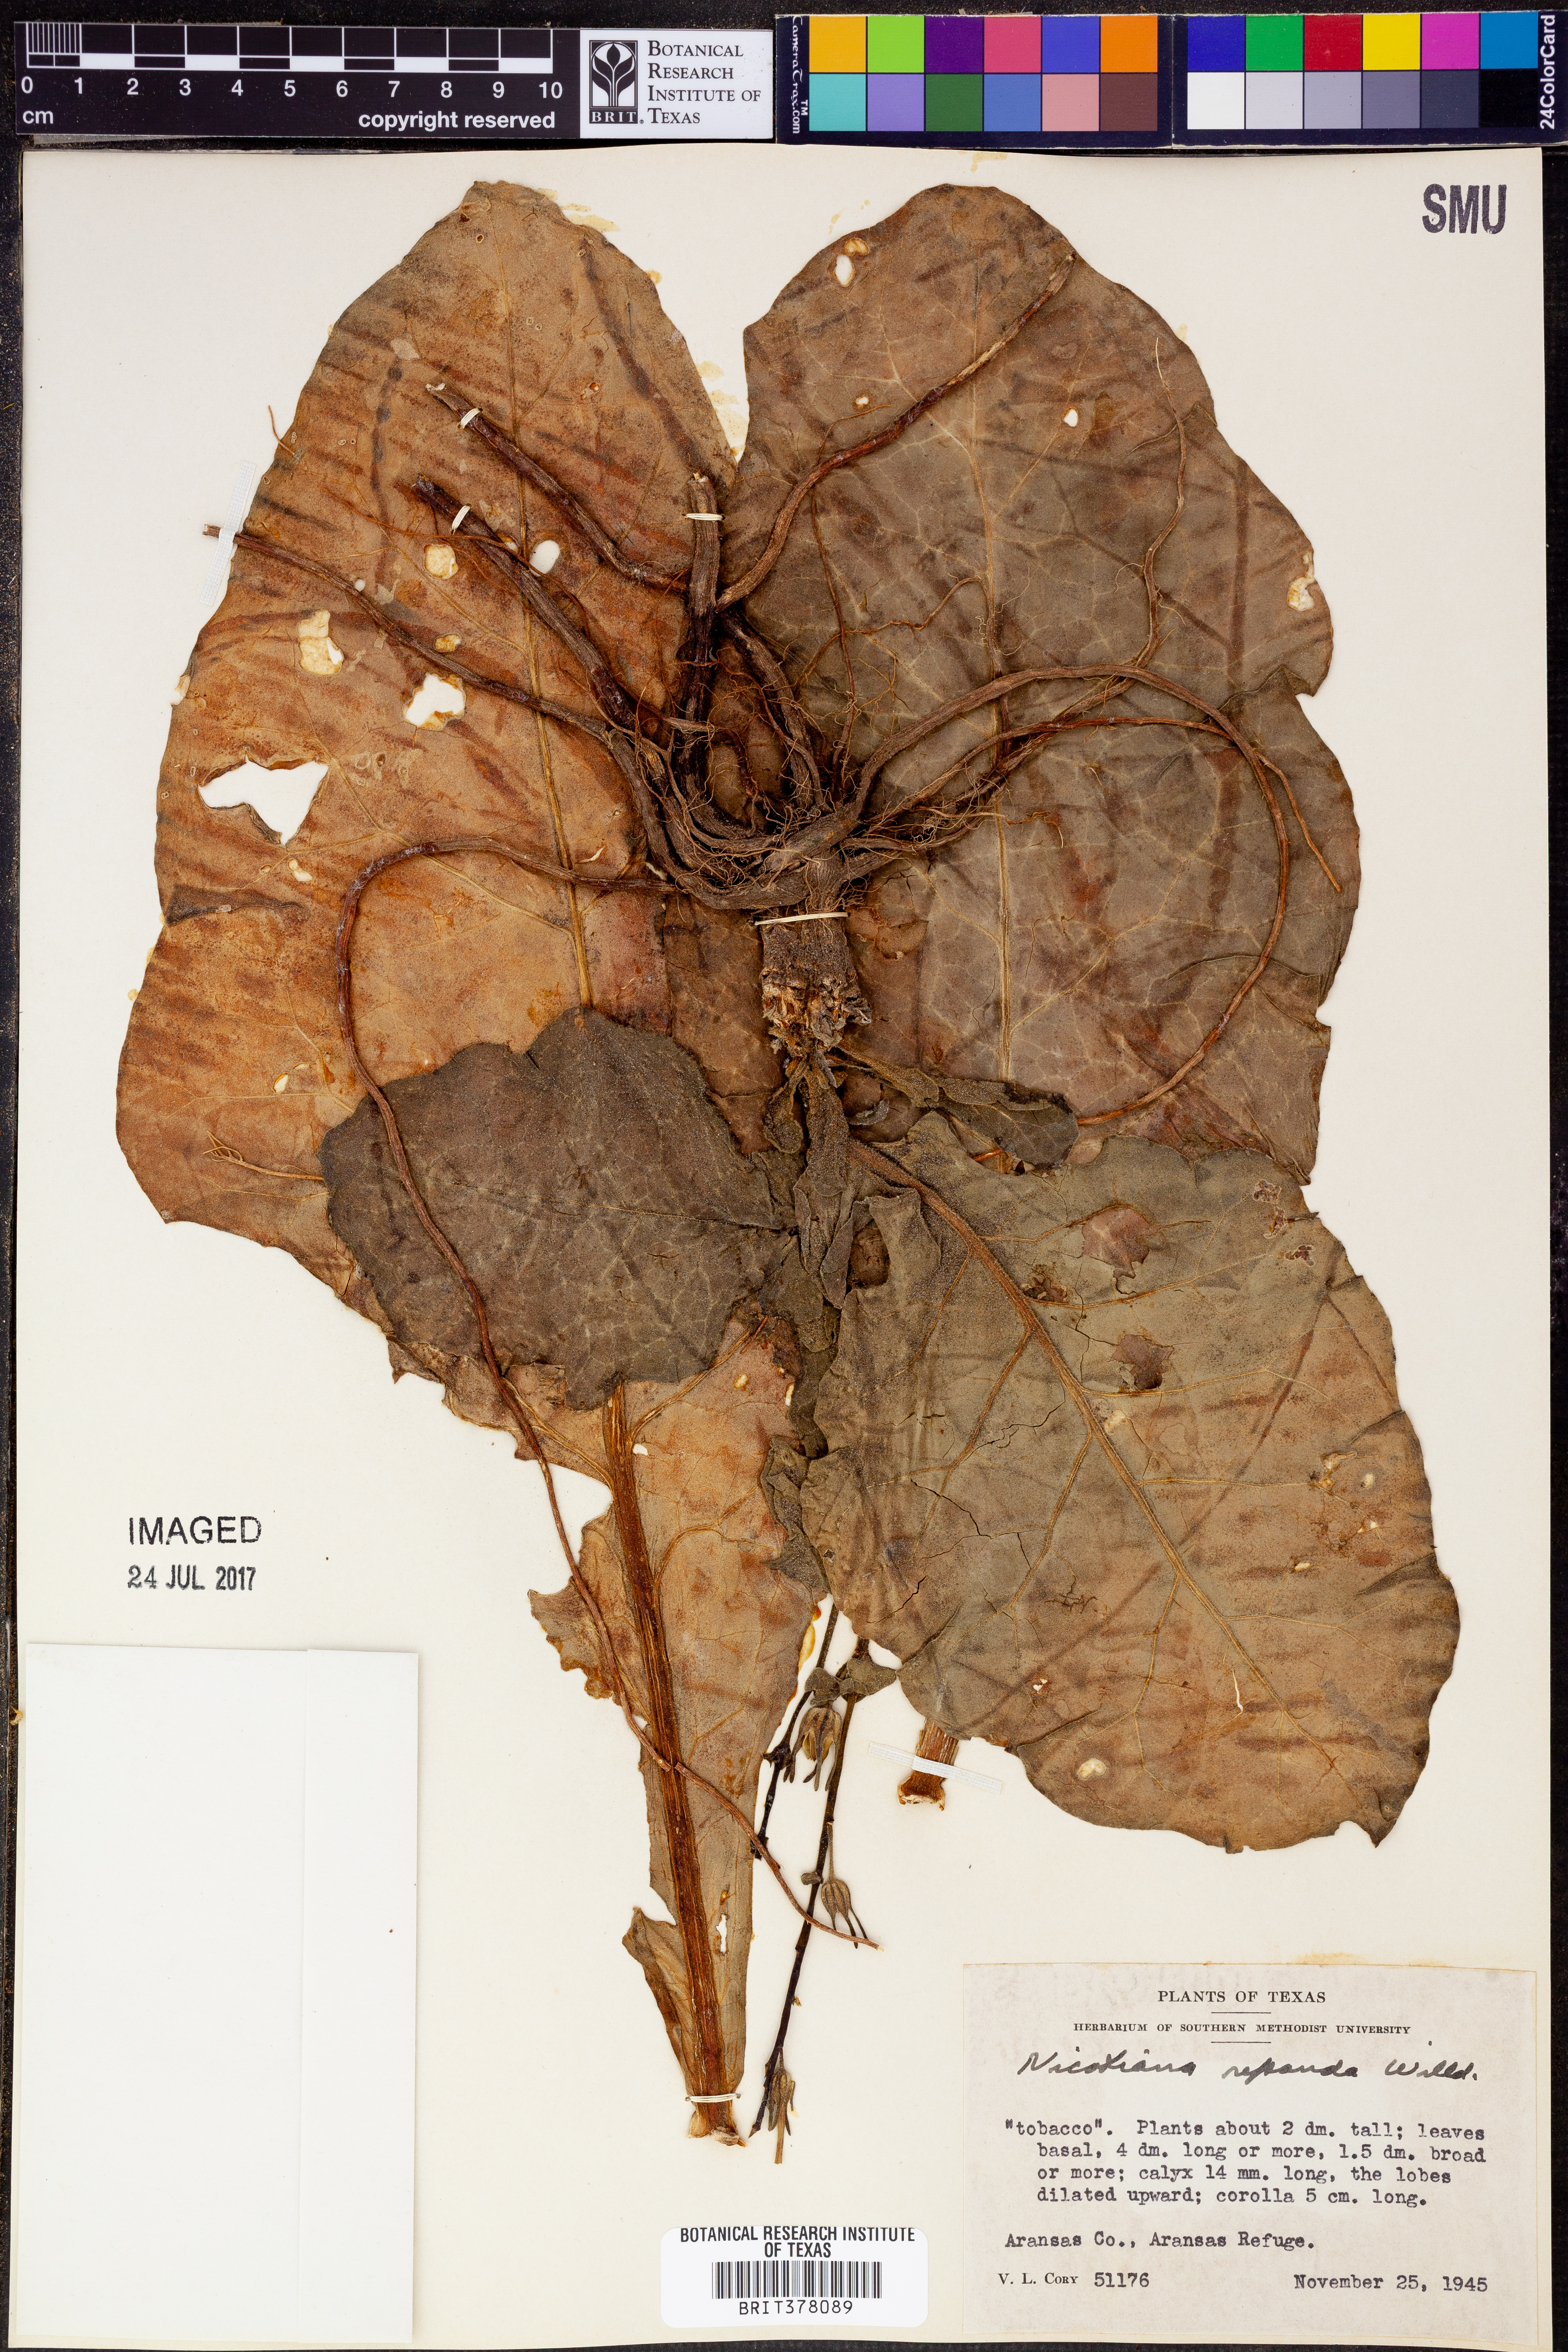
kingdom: Plantae
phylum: Tracheophyta
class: Magnoliopsida
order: Solanales
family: Solanaceae
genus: Nicotiana
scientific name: Nicotiana repanda
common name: Fiddle-leaf tobacco
